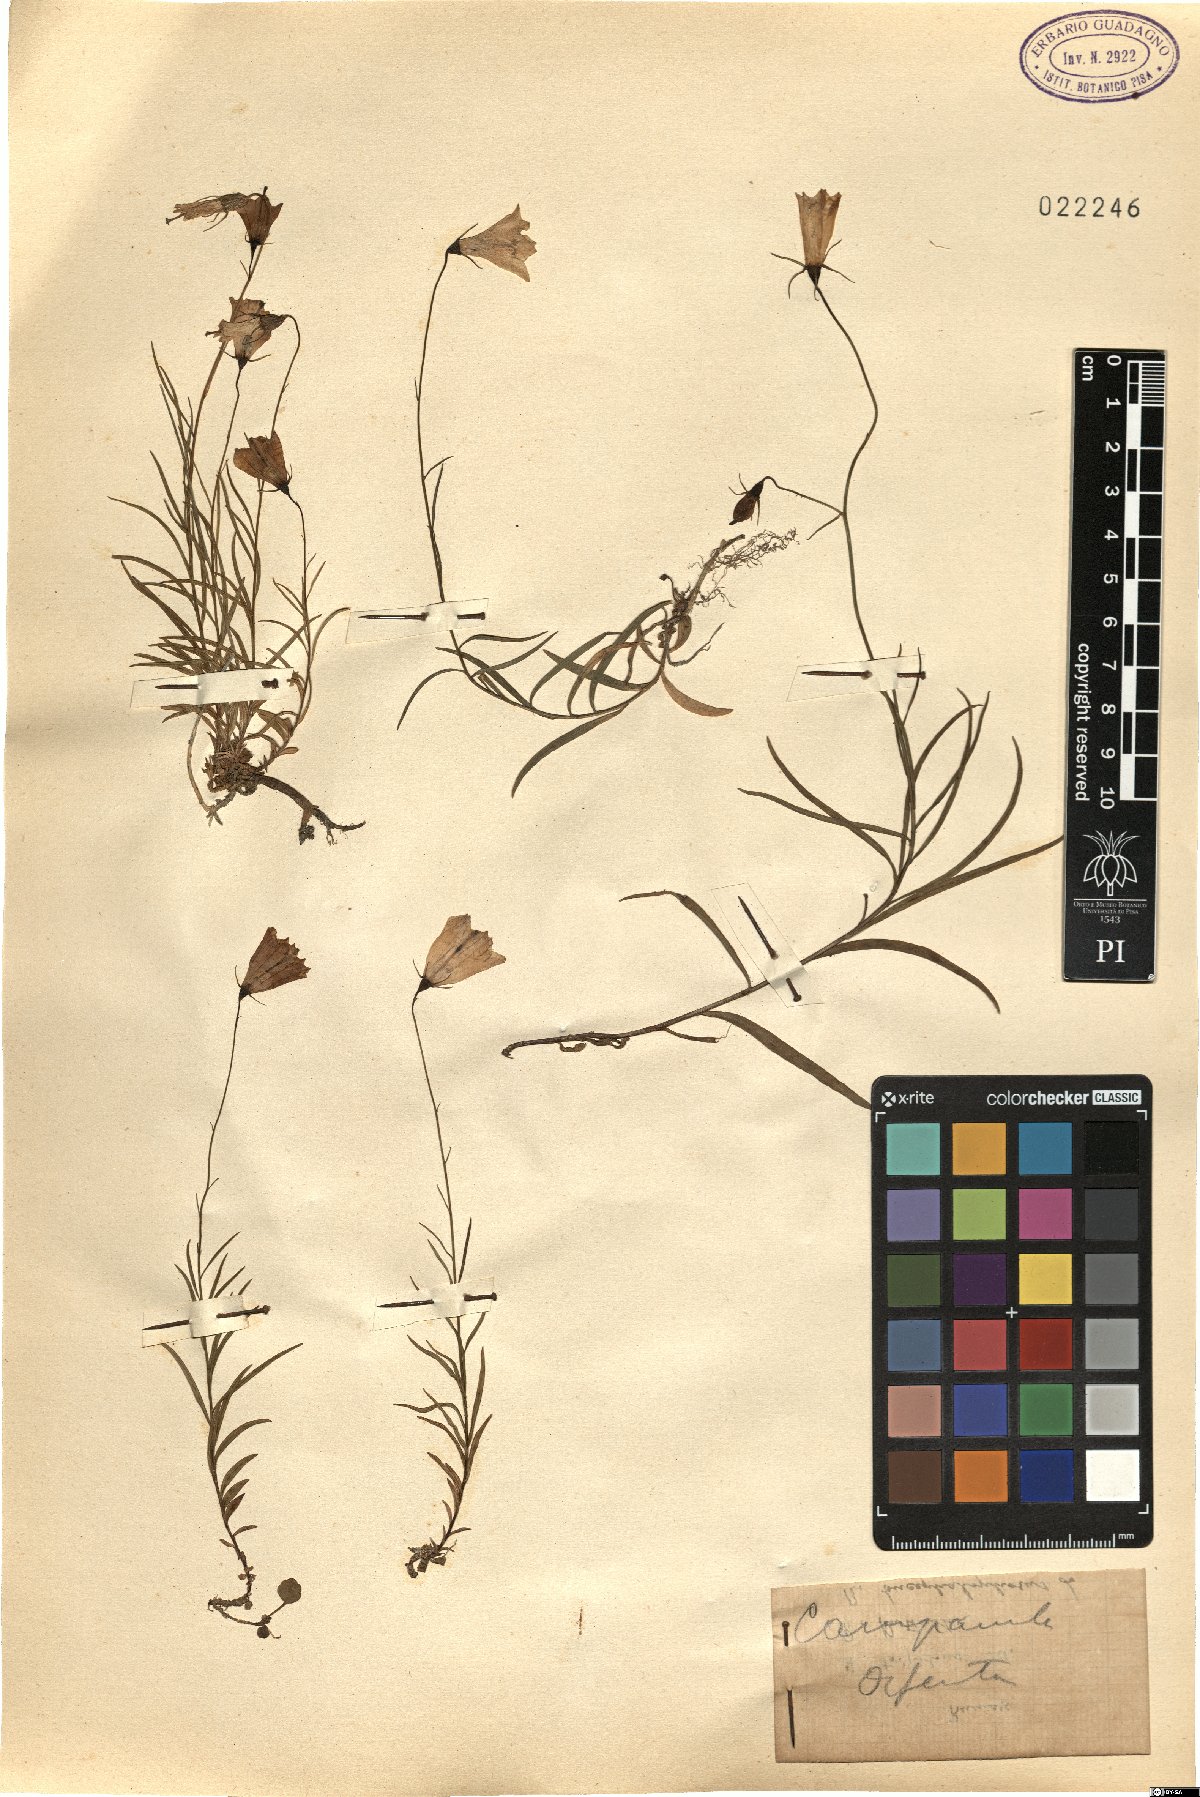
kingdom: Plantae
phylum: Tracheophyta
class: Magnoliopsida
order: Asterales
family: Campanulaceae
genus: Campanula
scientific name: Campanula
